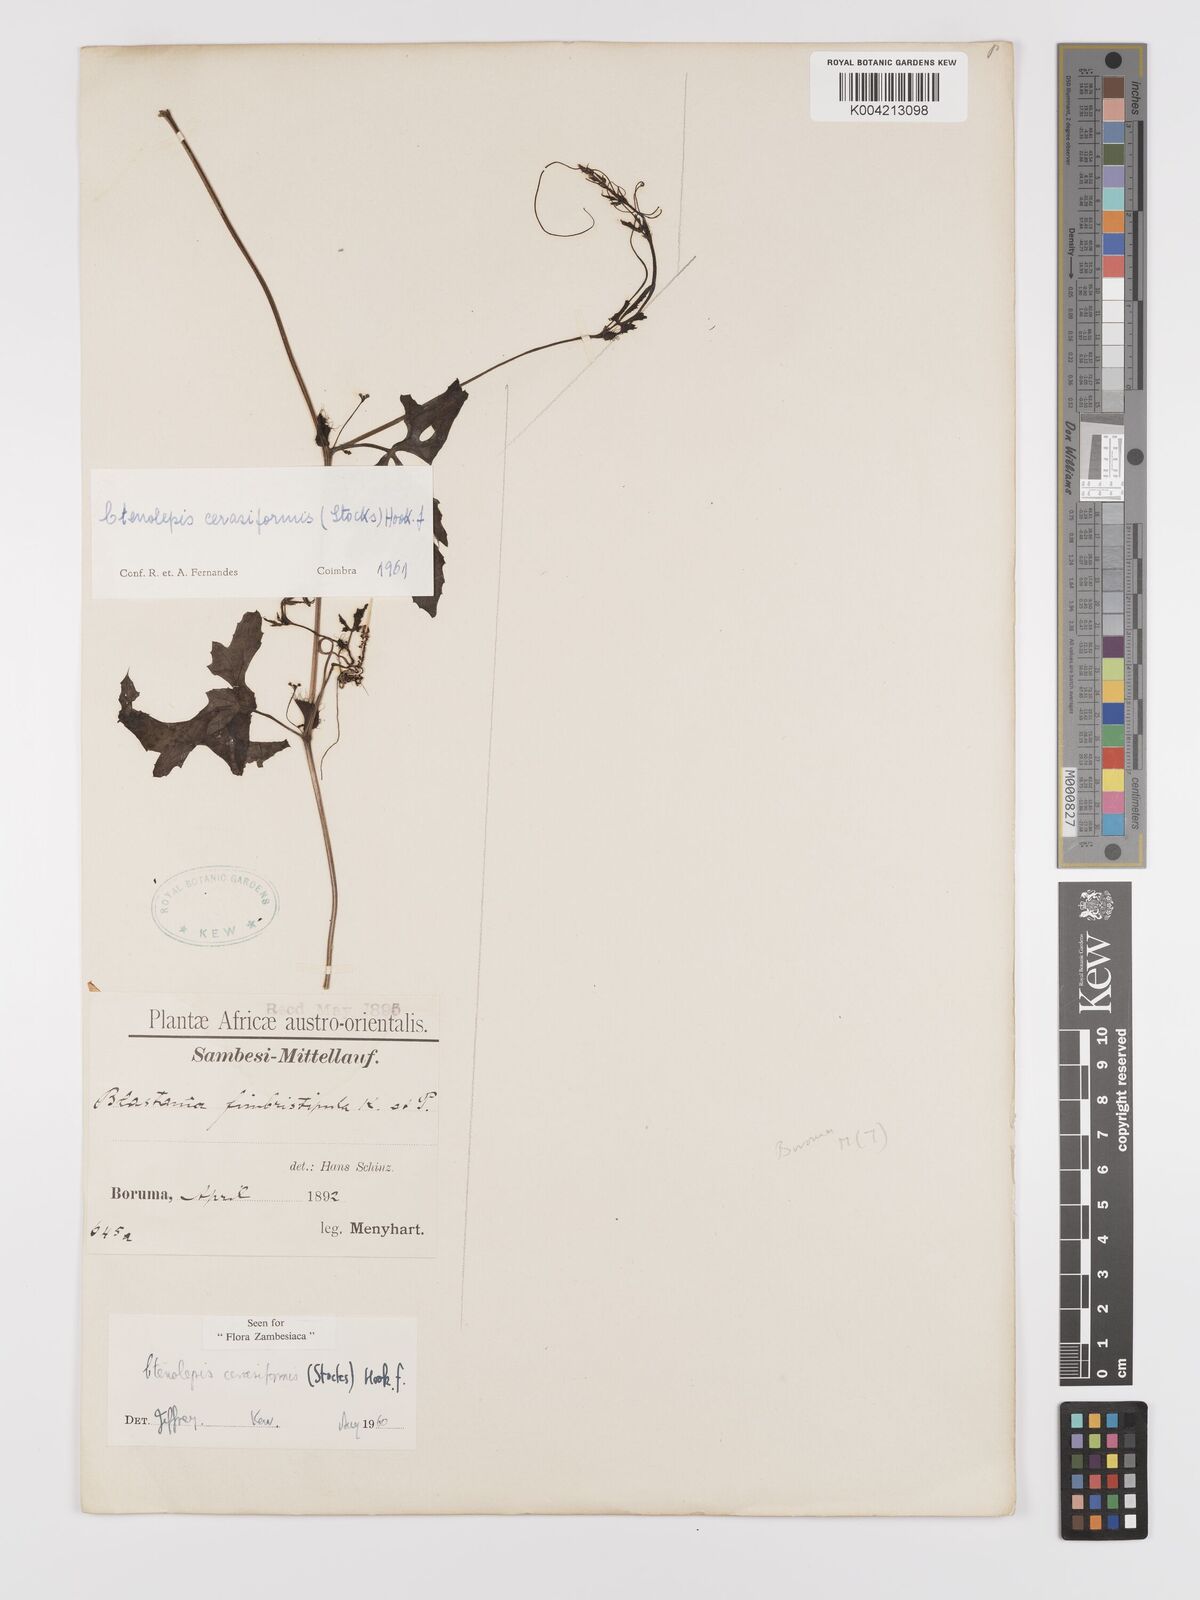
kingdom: Plantae
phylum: Tracheophyta
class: Magnoliopsida
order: Cucurbitales
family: Cucurbitaceae
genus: Blastania
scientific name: Blastania cerasiformis
